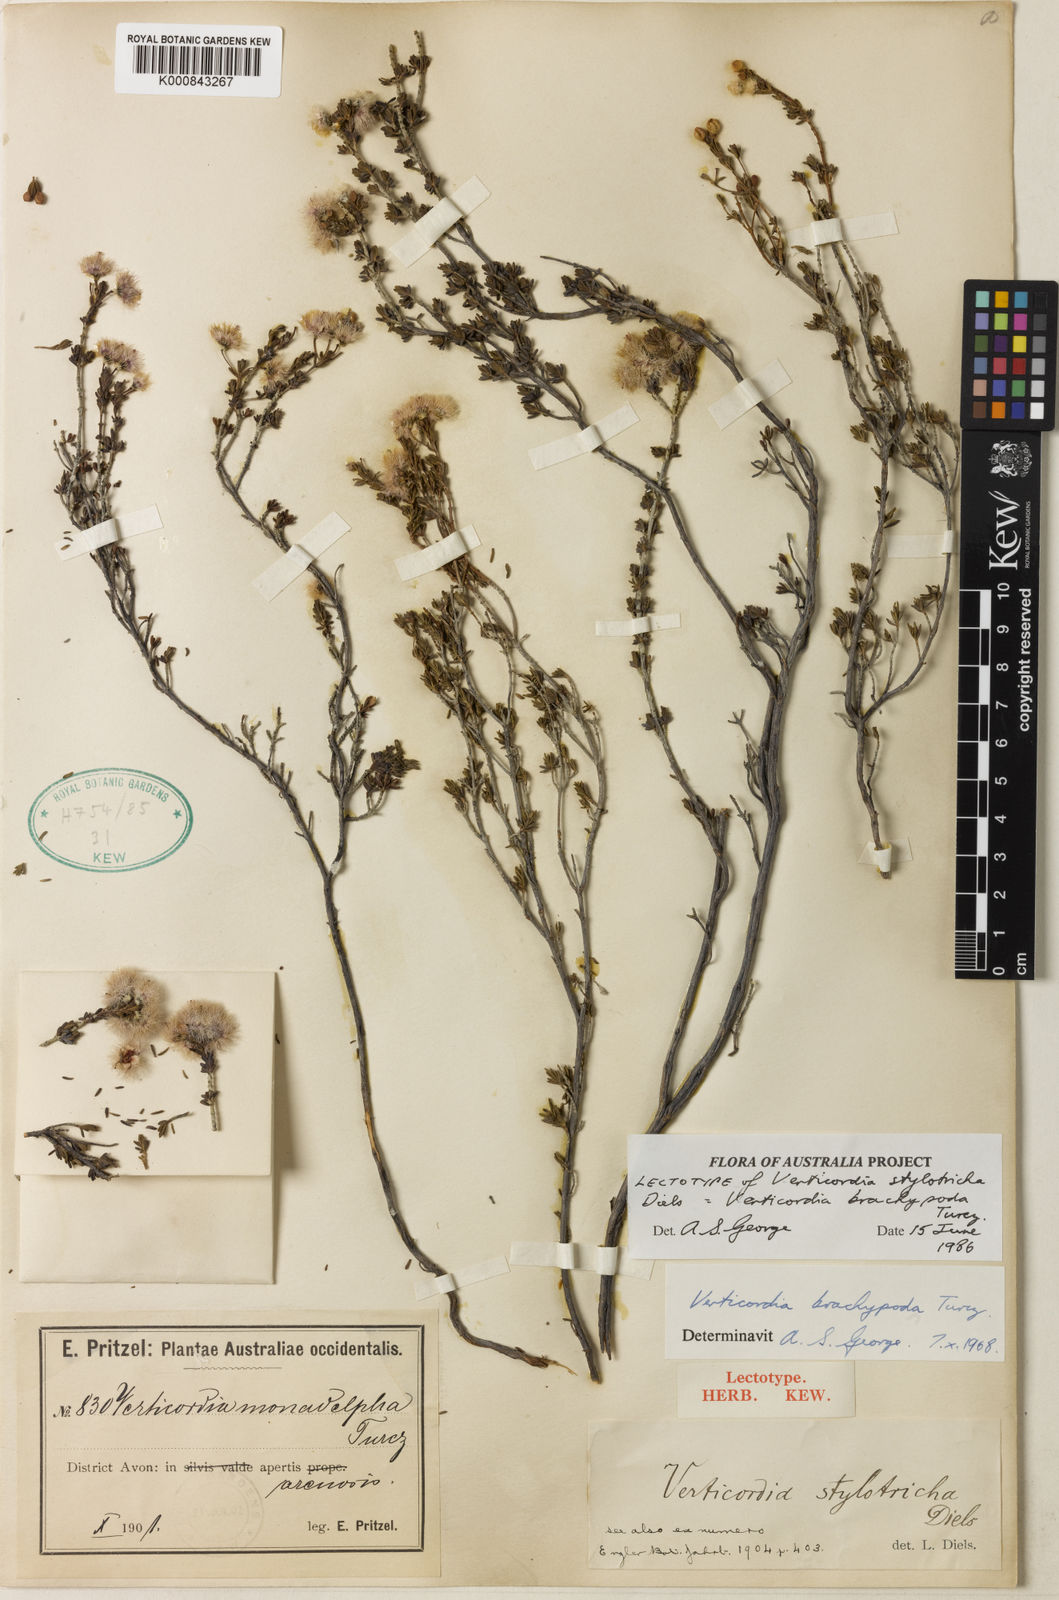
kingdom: Plantae
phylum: Tracheophyta
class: Magnoliopsida
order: Myrtales
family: Myrtaceae
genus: Verticordia
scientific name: Verticordia brachypoda
